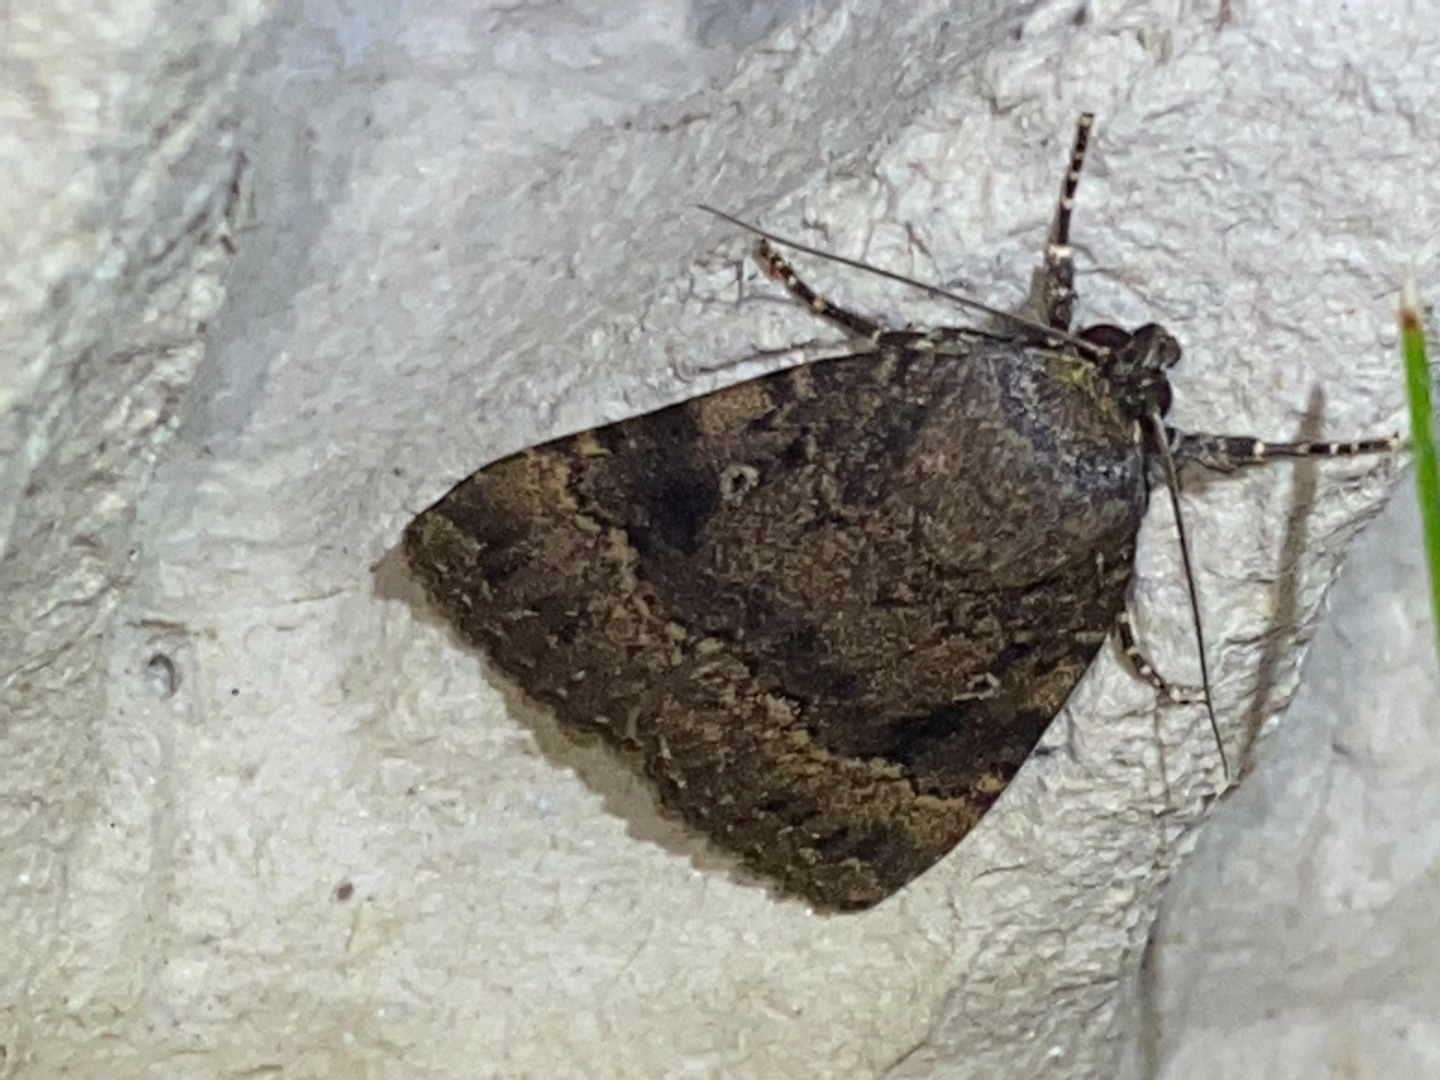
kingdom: Animalia
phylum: Arthropoda
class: Insecta
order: Lepidoptera
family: Noctuidae
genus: Amphipyra
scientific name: Amphipyra pyramidea
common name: Pyramideugle
